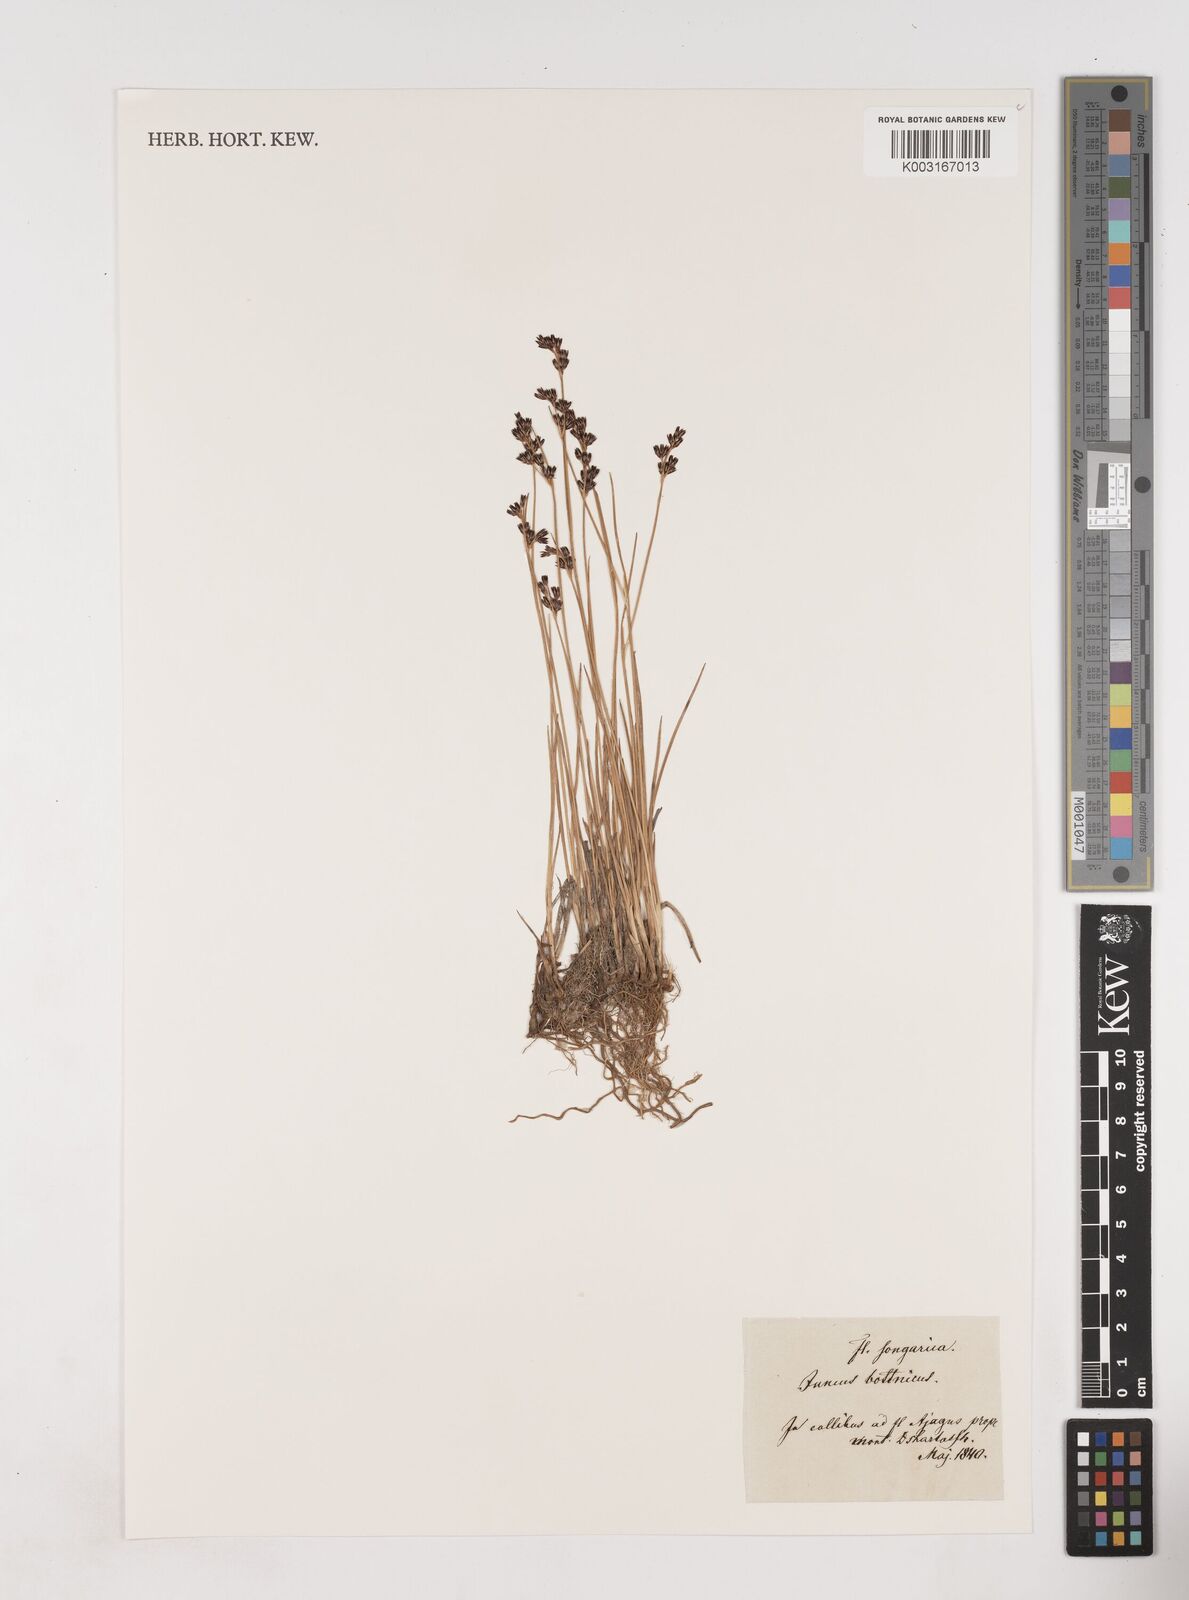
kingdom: Plantae
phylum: Tracheophyta
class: Liliopsida
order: Poales
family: Juncaceae
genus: Juncus
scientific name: Juncus gerardi
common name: Saltmarsh rush
